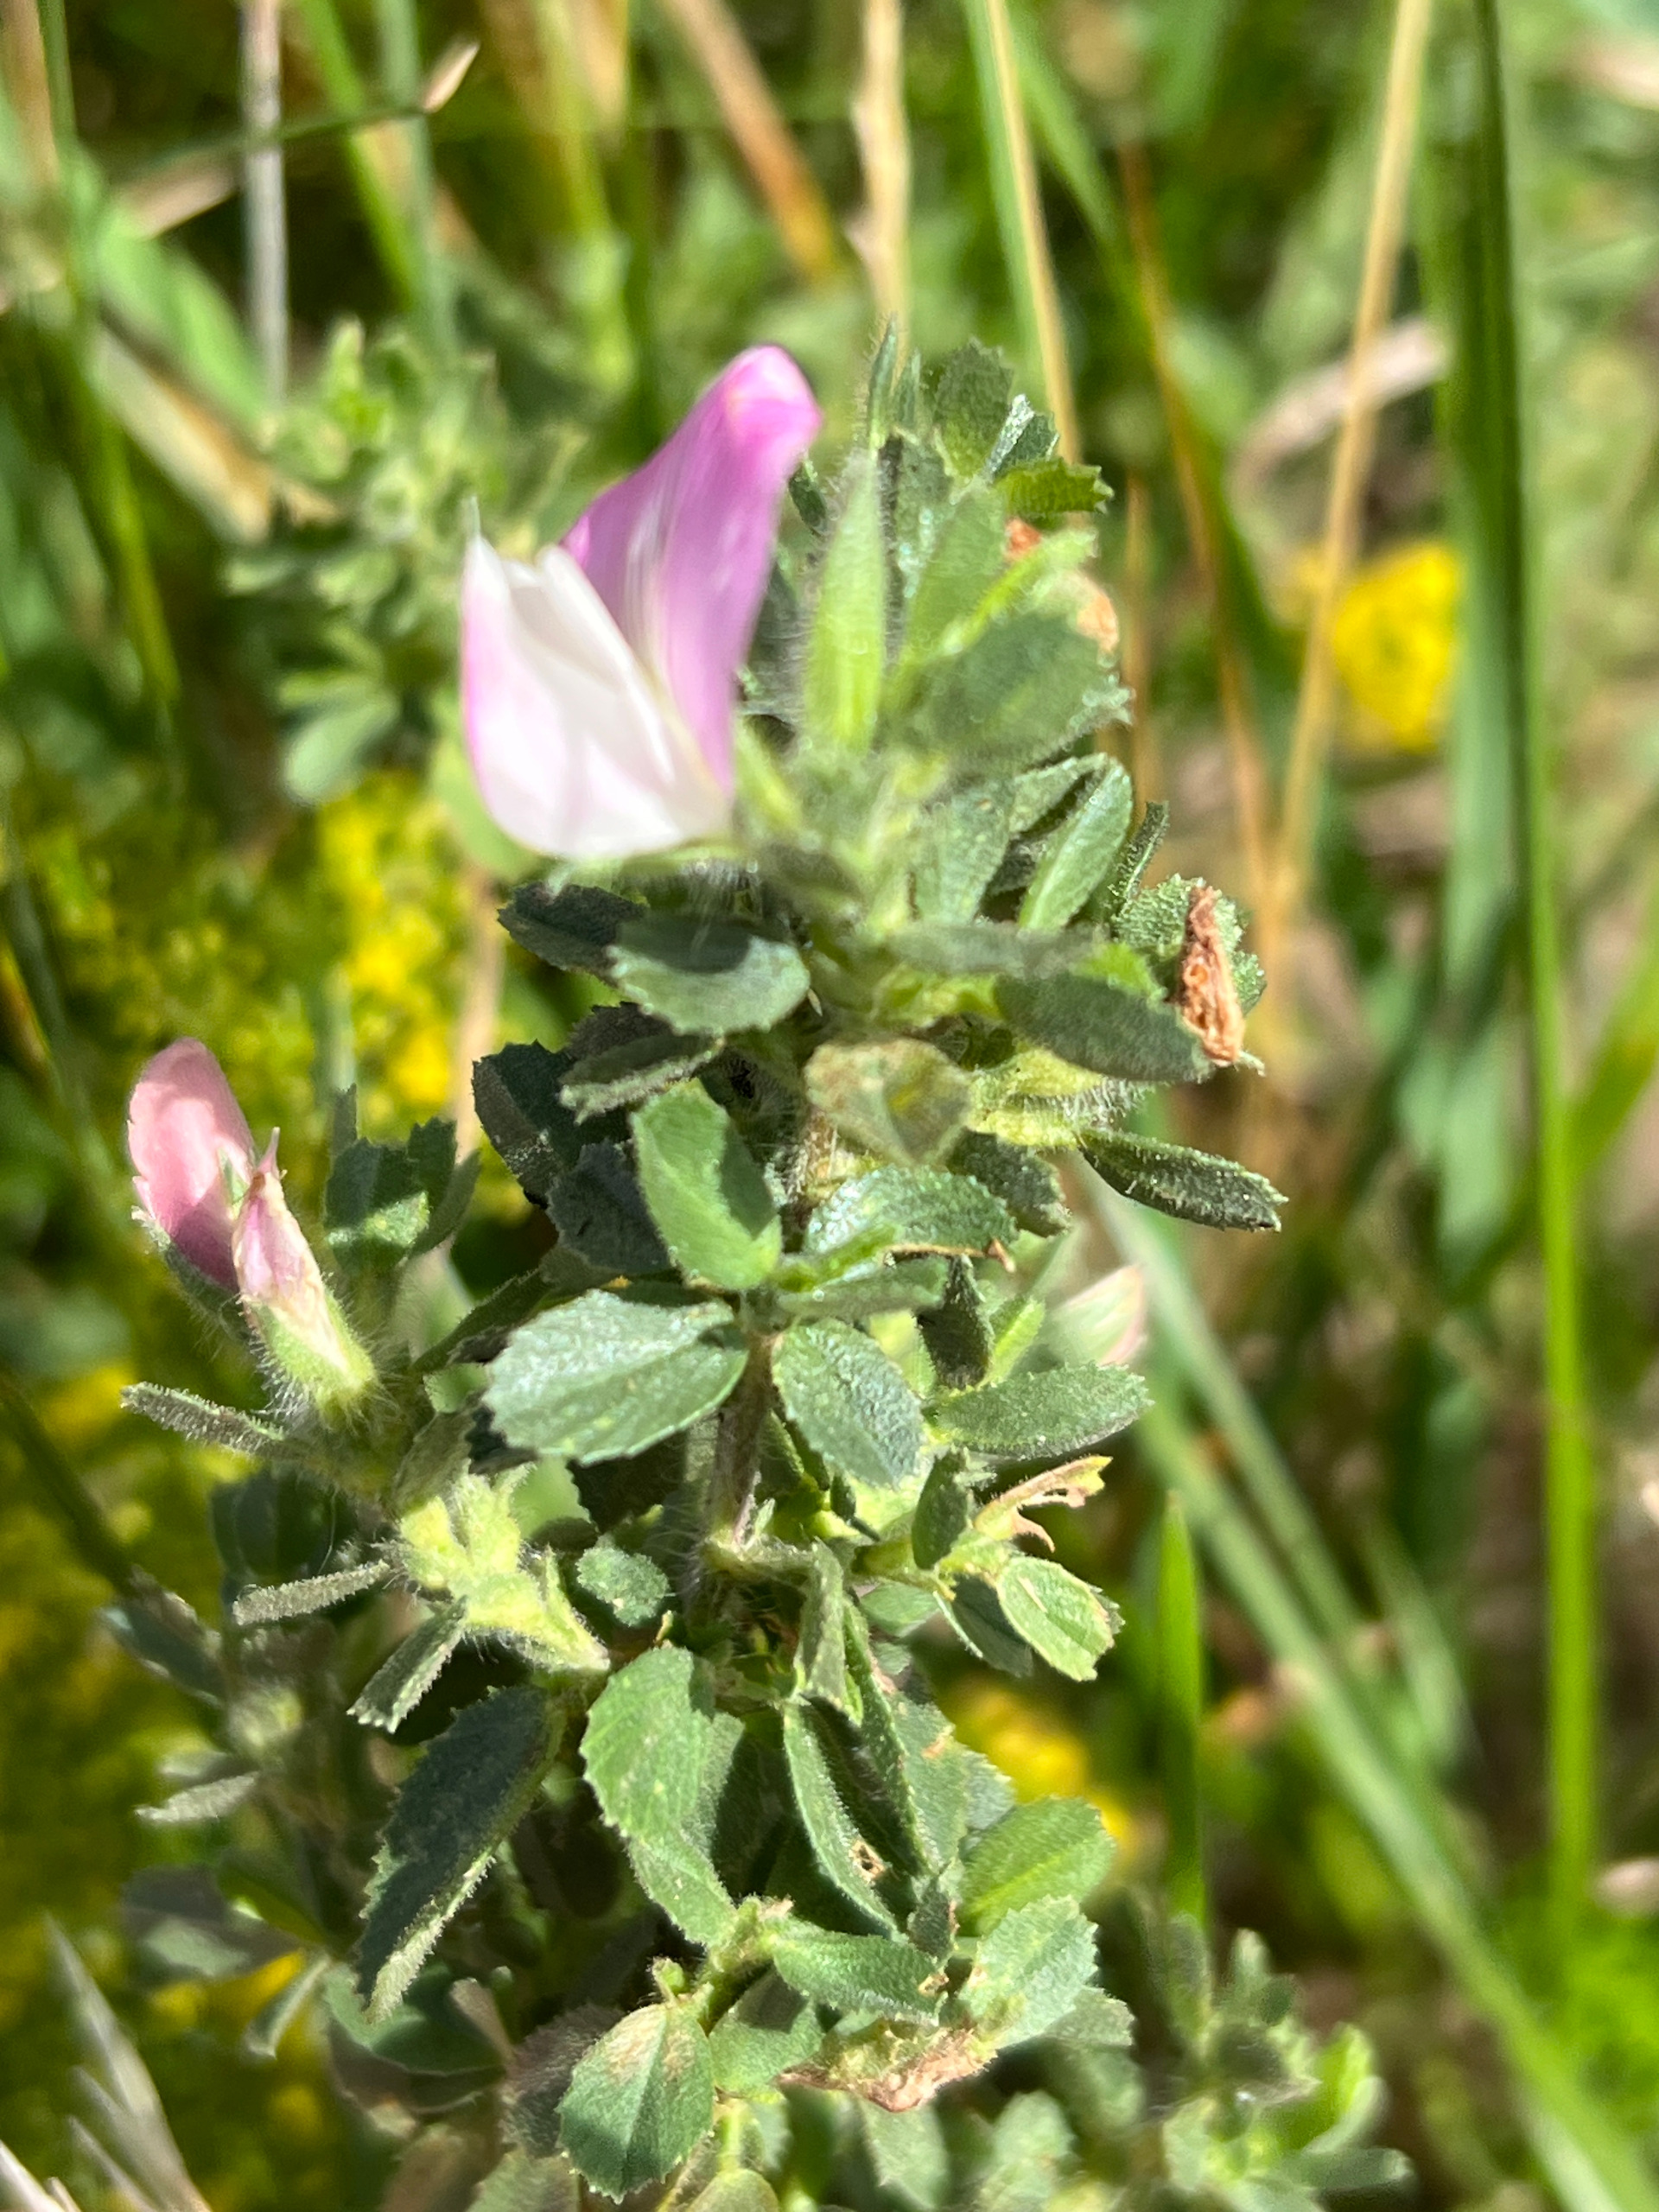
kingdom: Plantae
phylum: Tracheophyta
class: Magnoliopsida
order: Fabales
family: Fabaceae
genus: Ononis
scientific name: Ononis spinosa
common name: Mark-krageklo
